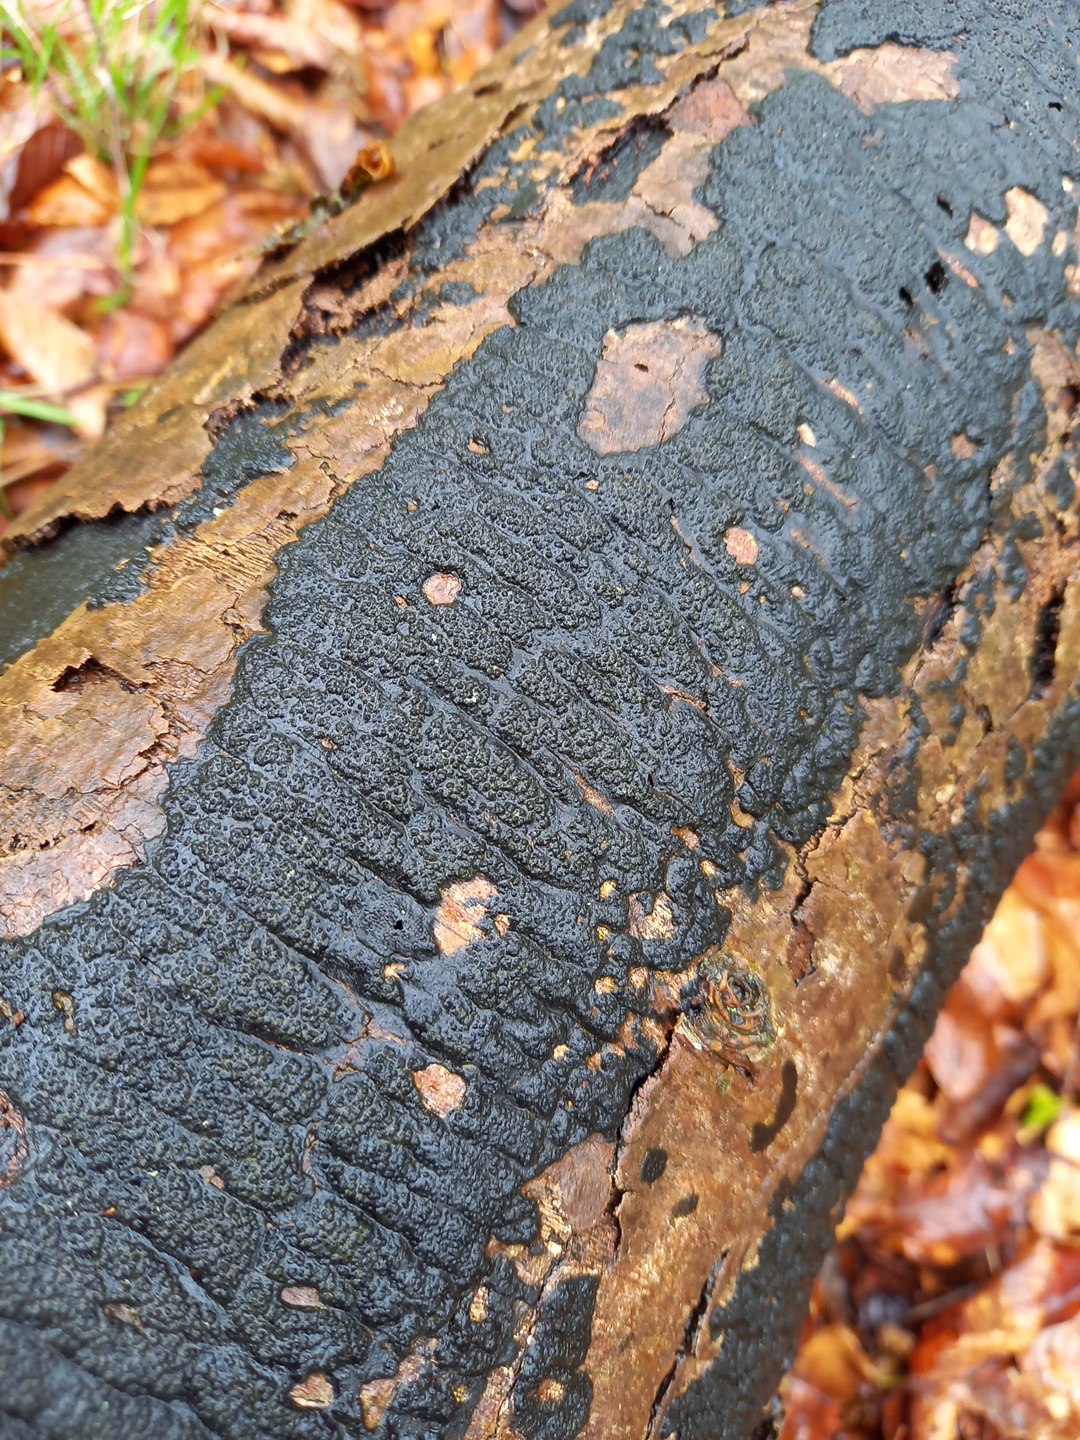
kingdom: Fungi
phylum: Ascomycota
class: Sordariomycetes
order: Xylariales
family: Diatrypaceae
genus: Eutypa
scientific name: Eutypa spinosa
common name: grov kulskorpe
